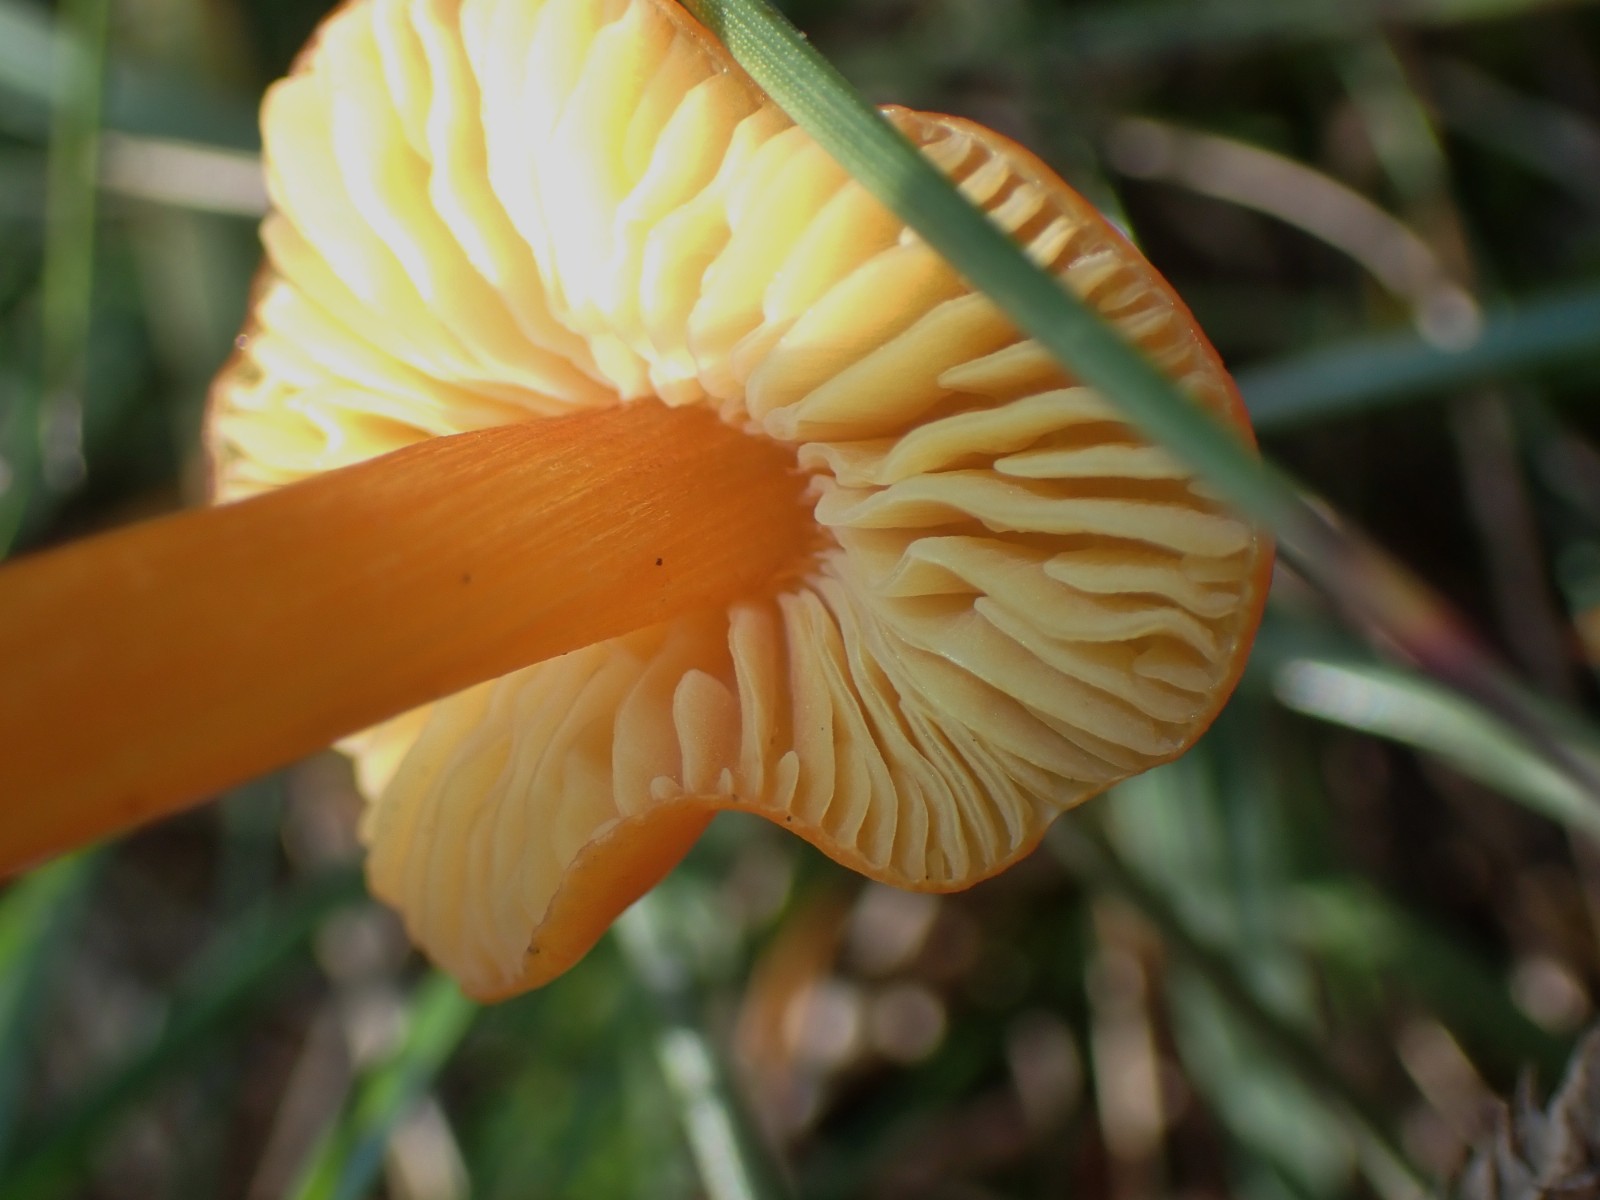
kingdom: Fungi
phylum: Basidiomycota
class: Agaricomycetes
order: Agaricales
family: Hygrophoraceae
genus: Hygrocybe
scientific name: Hygrocybe chlorophana
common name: gul vokshat
